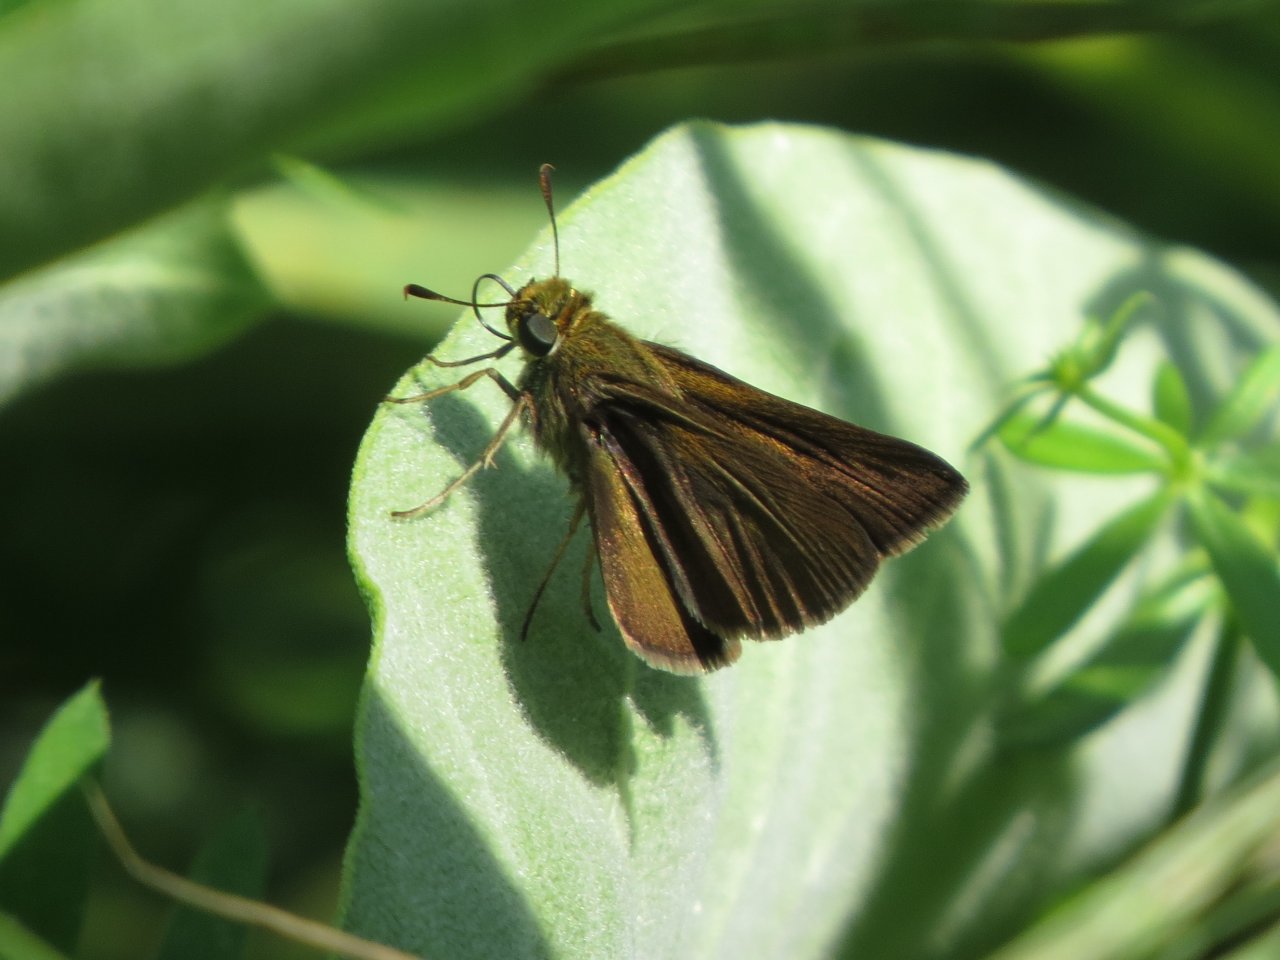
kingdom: Animalia
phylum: Arthropoda
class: Insecta
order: Lepidoptera
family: Hesperiidae
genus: Euphyes
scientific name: Euphyes vestris
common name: Dun Skipper
